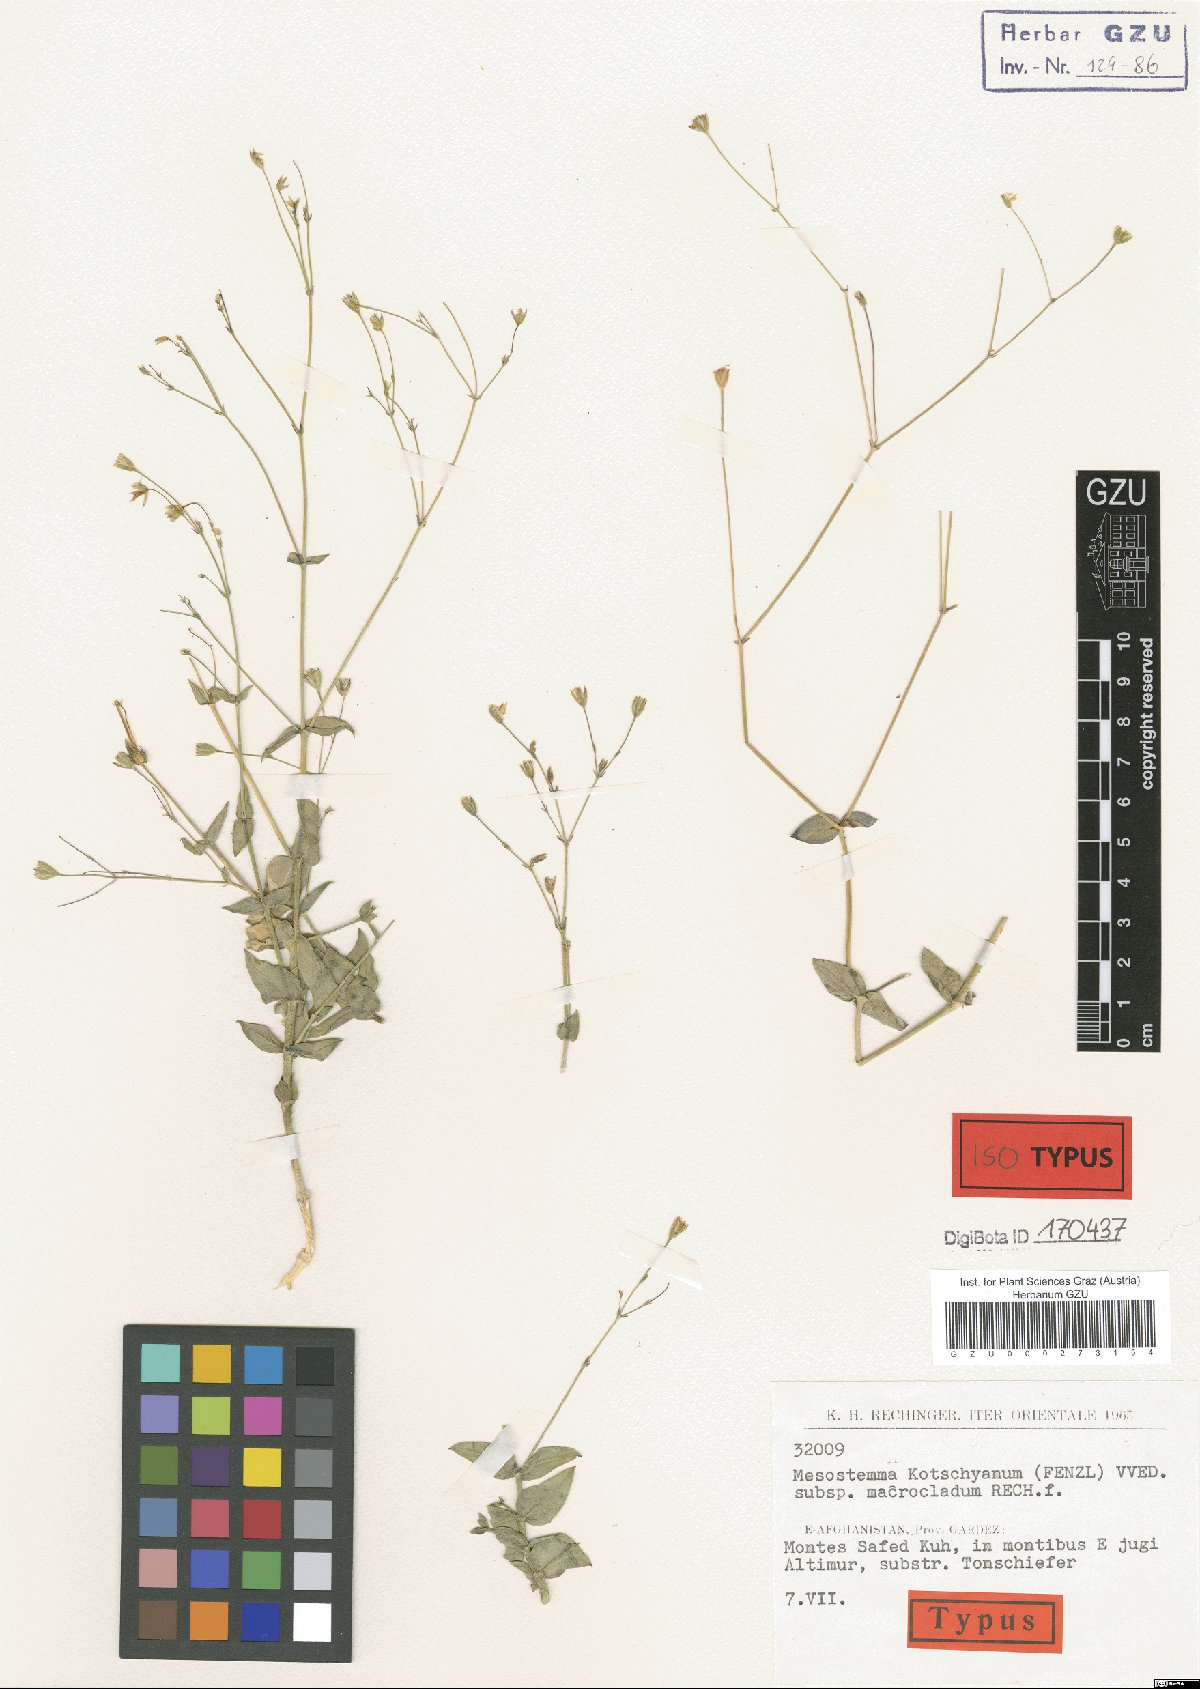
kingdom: Plantae
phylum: Tracheophyta
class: Magnoliopsida
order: Caryophyllales
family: Caryophyllaceae
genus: Mesostemma
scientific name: Mesostemma kotschyanum
